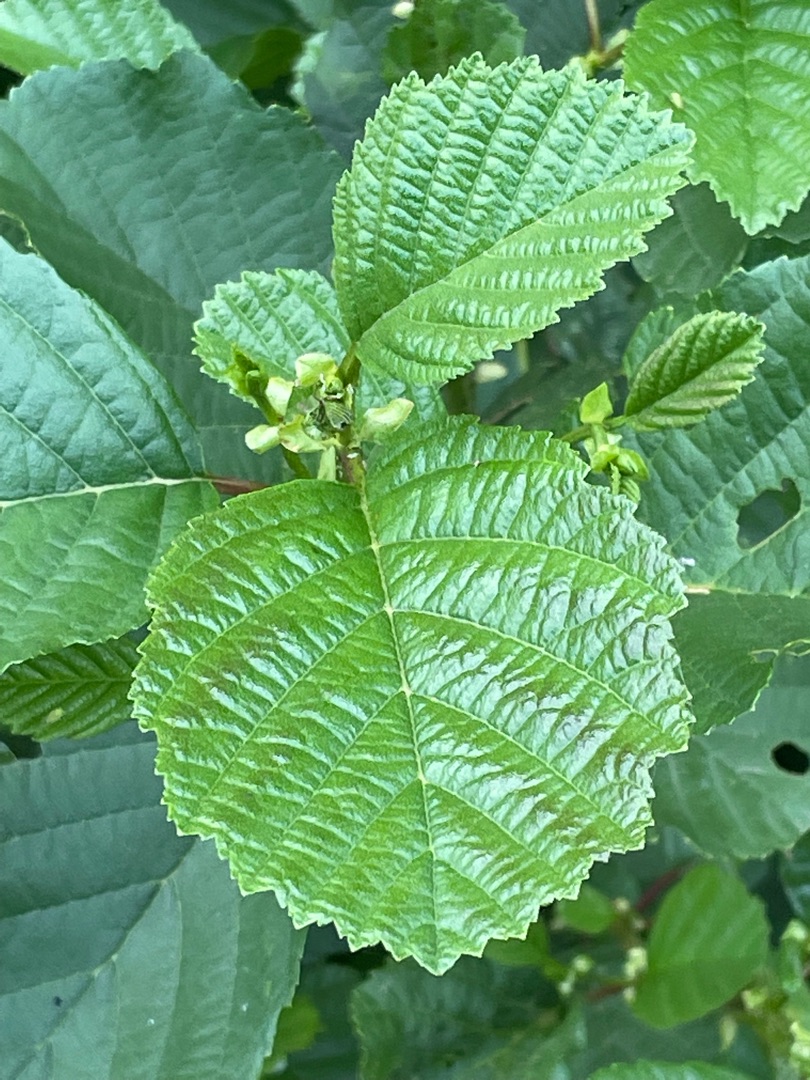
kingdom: Plantae
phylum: Tracheophyta
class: Magnoliopsida
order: Fagales
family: Betulaceae
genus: Alnus
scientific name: Alnus glutinosa
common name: Rød-el
